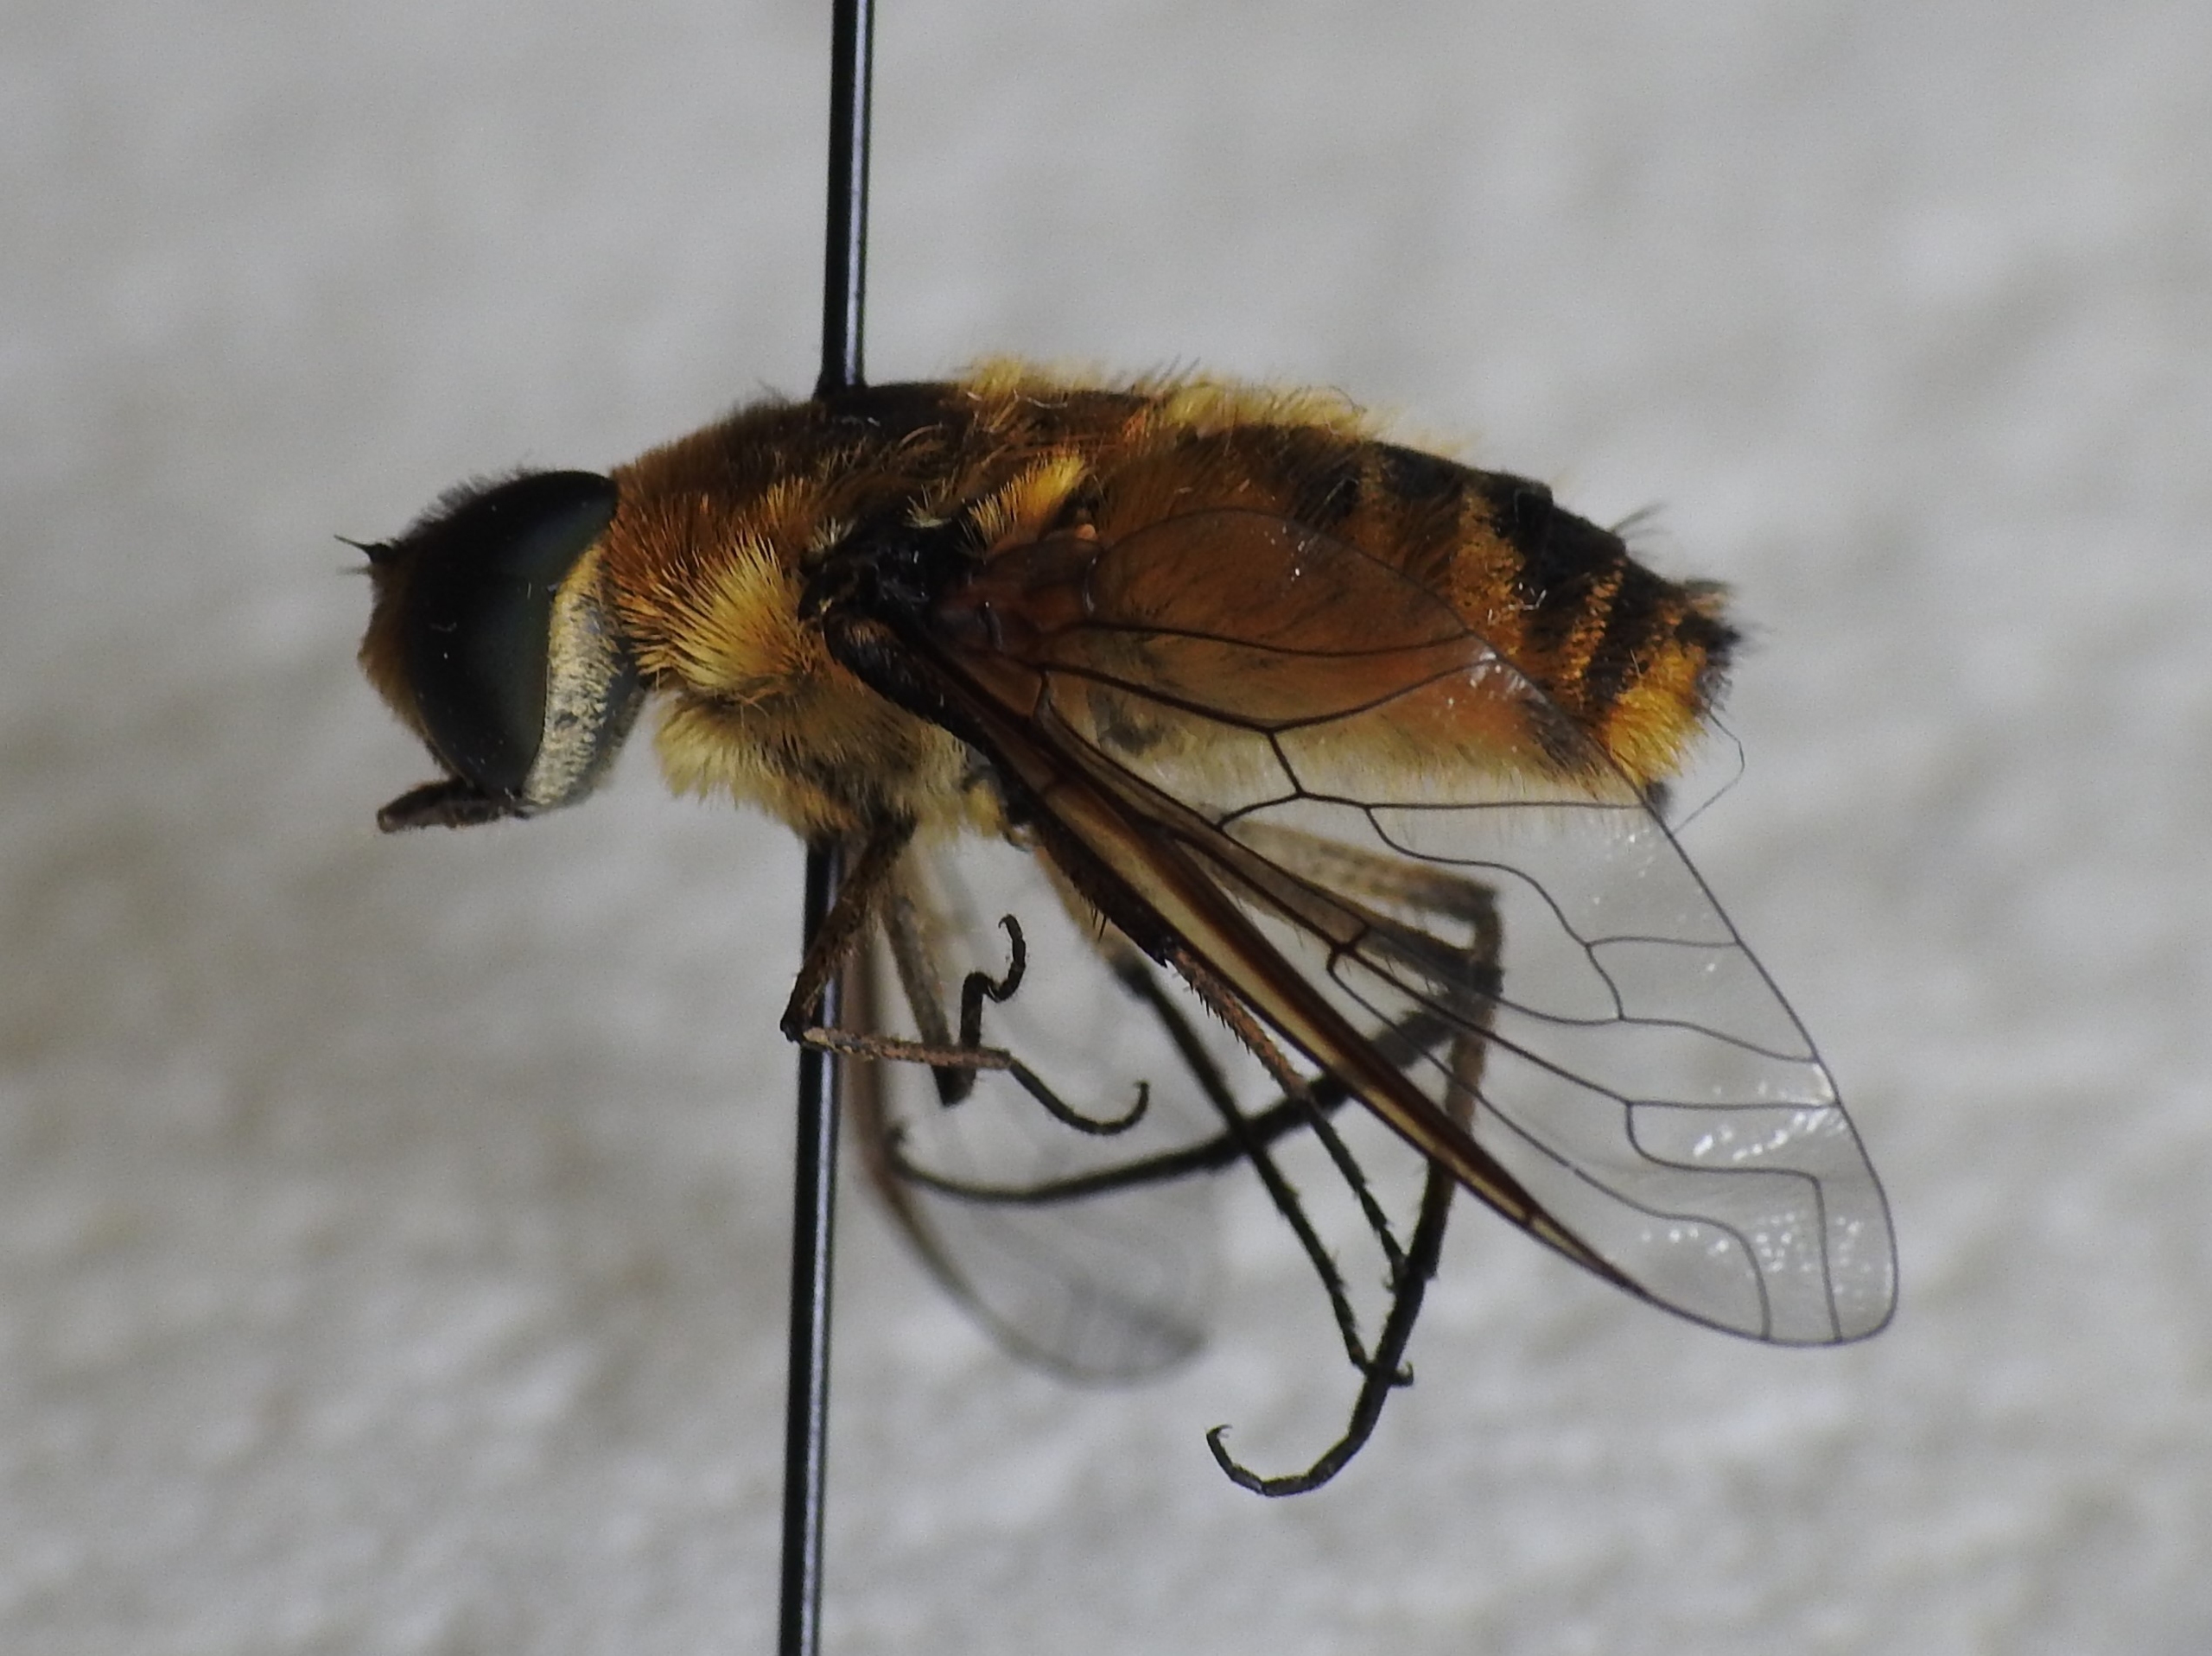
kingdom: Animalia
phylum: Arthropoda
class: Insecta
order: Diptera
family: Bombyliidae
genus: Villa
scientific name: Villa modesta
